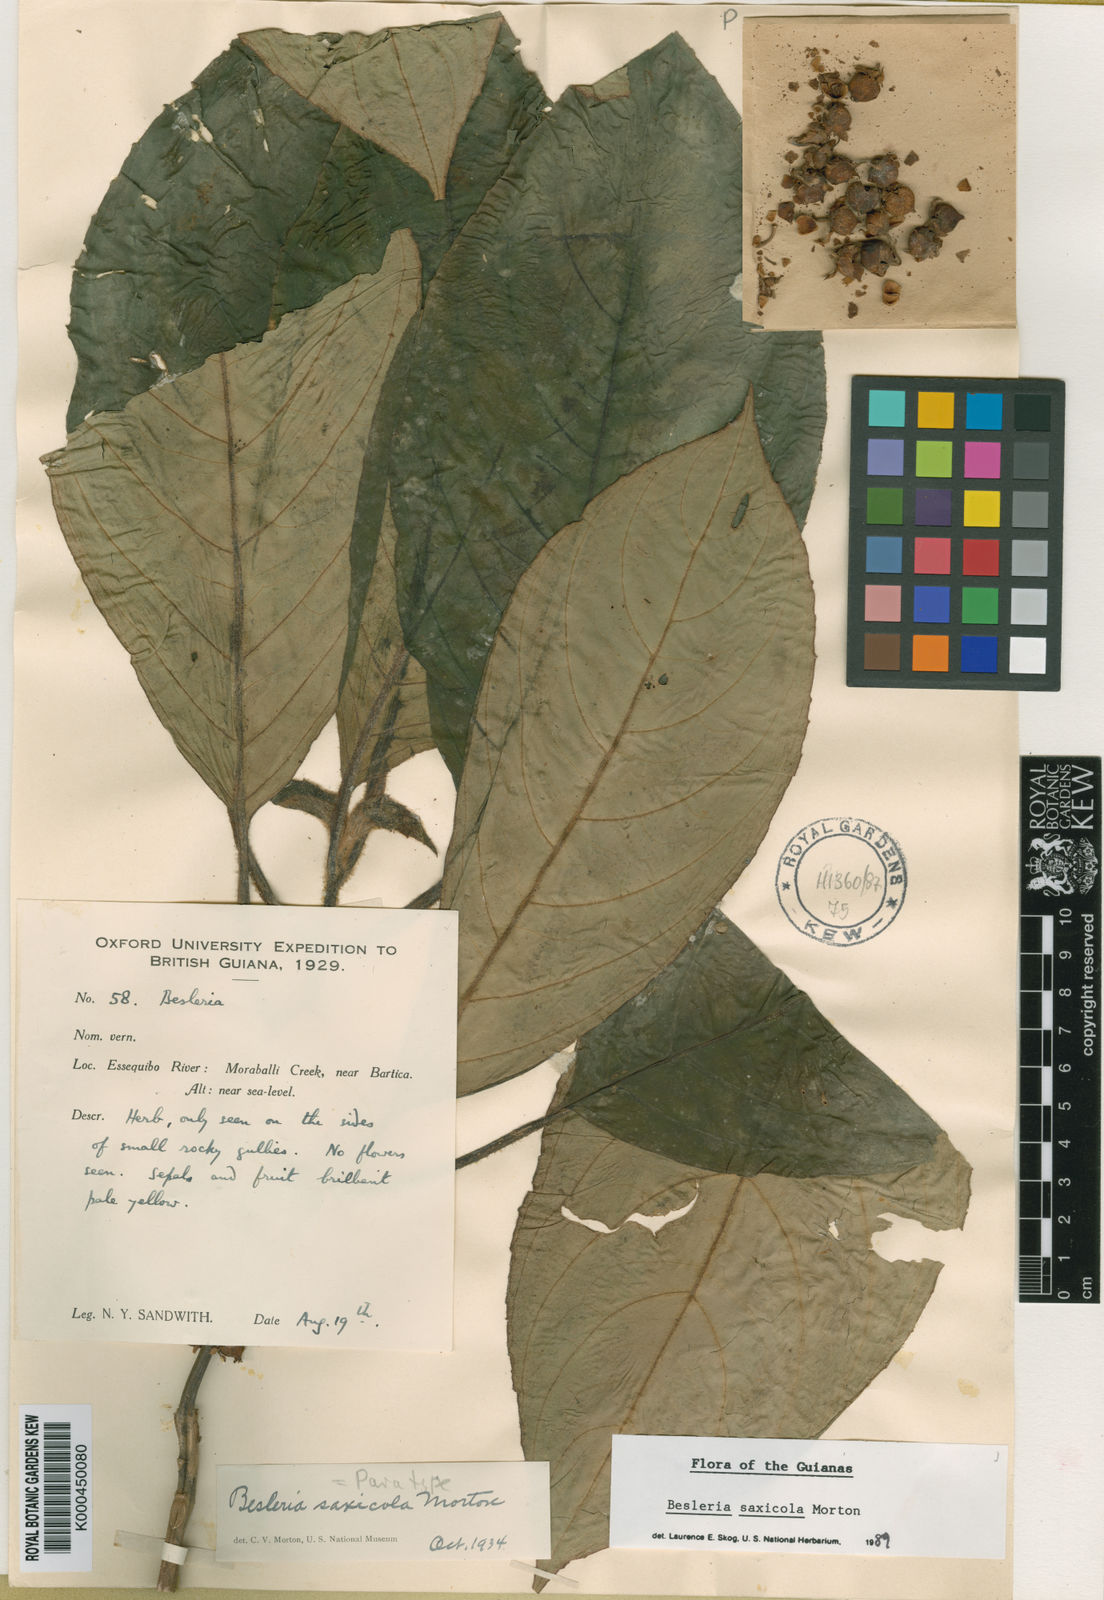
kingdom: Plantae
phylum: Tracheophyta
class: Magnoliopsida
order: Lamiales
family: Gesneriaceae
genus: Besleria
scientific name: Besleria saxicola
